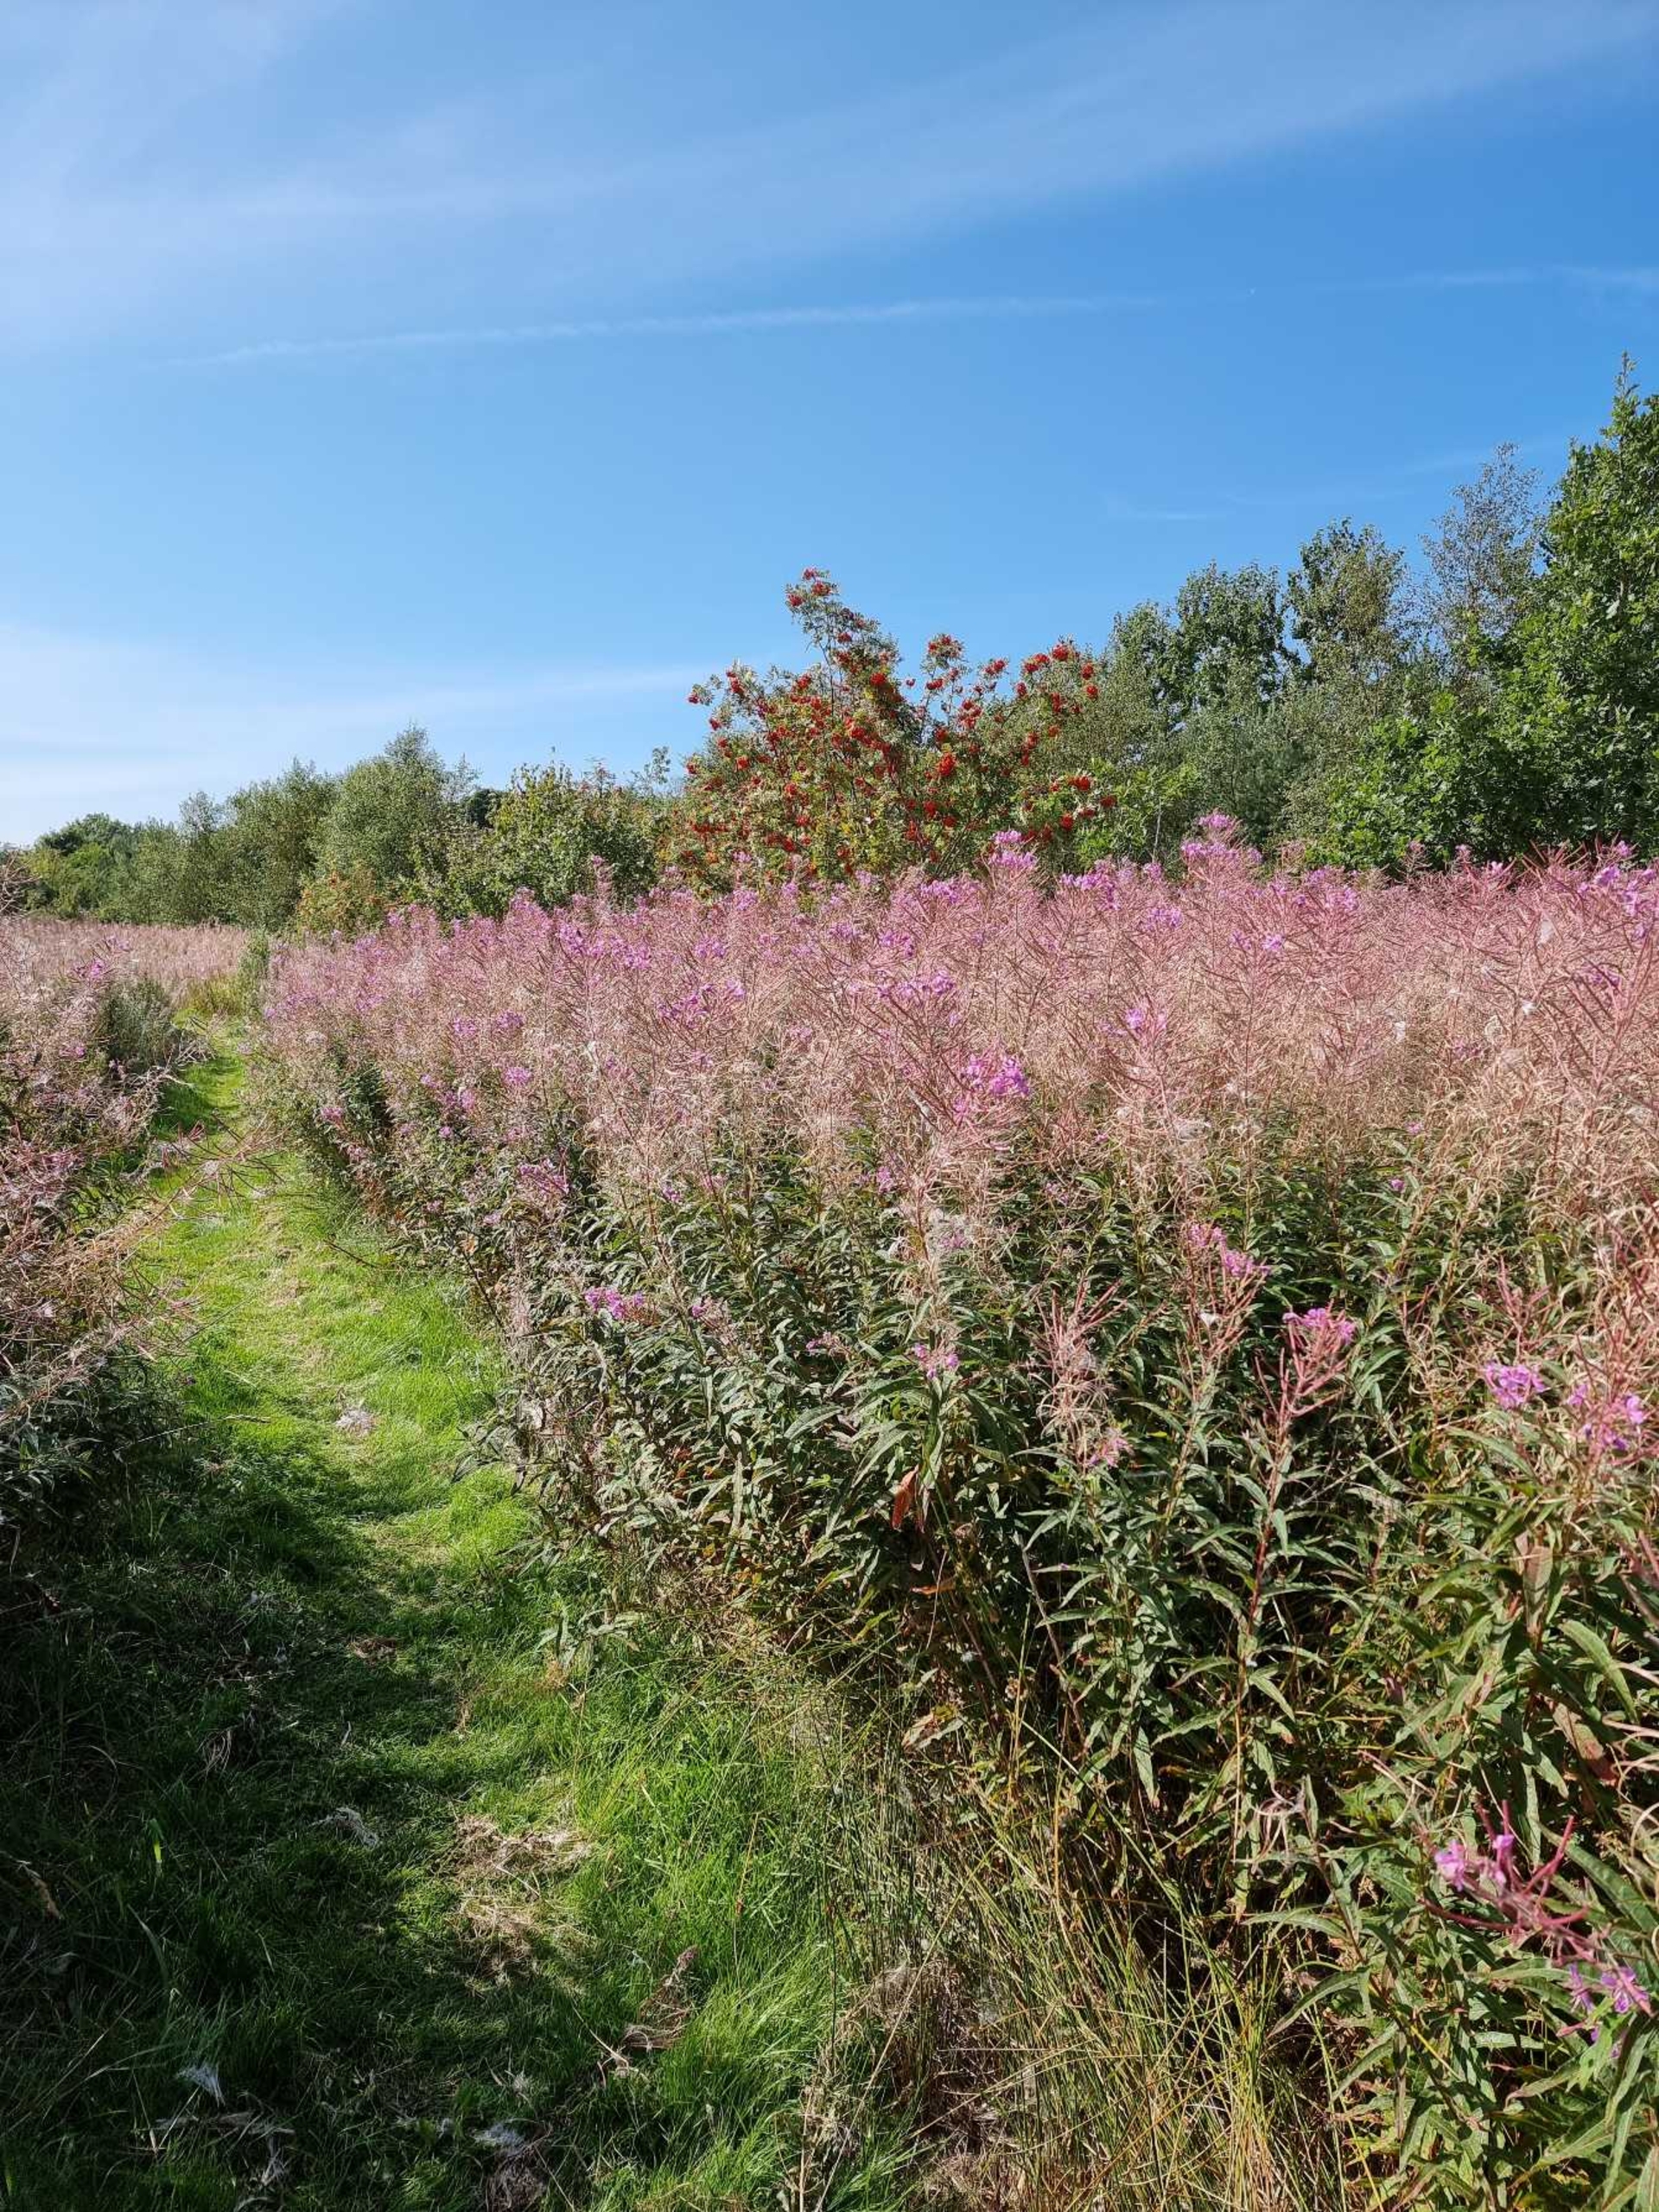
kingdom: Plantae
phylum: Tracheophyta
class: Magnoliopsida
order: Myrtales
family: Onagraceae
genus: Chamaenerion
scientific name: Chamaenerion angustifolium
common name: Gederams
